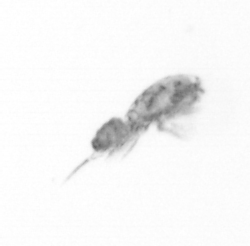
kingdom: Animalia
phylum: Arthropoda
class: Copepoda
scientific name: Copepoda
